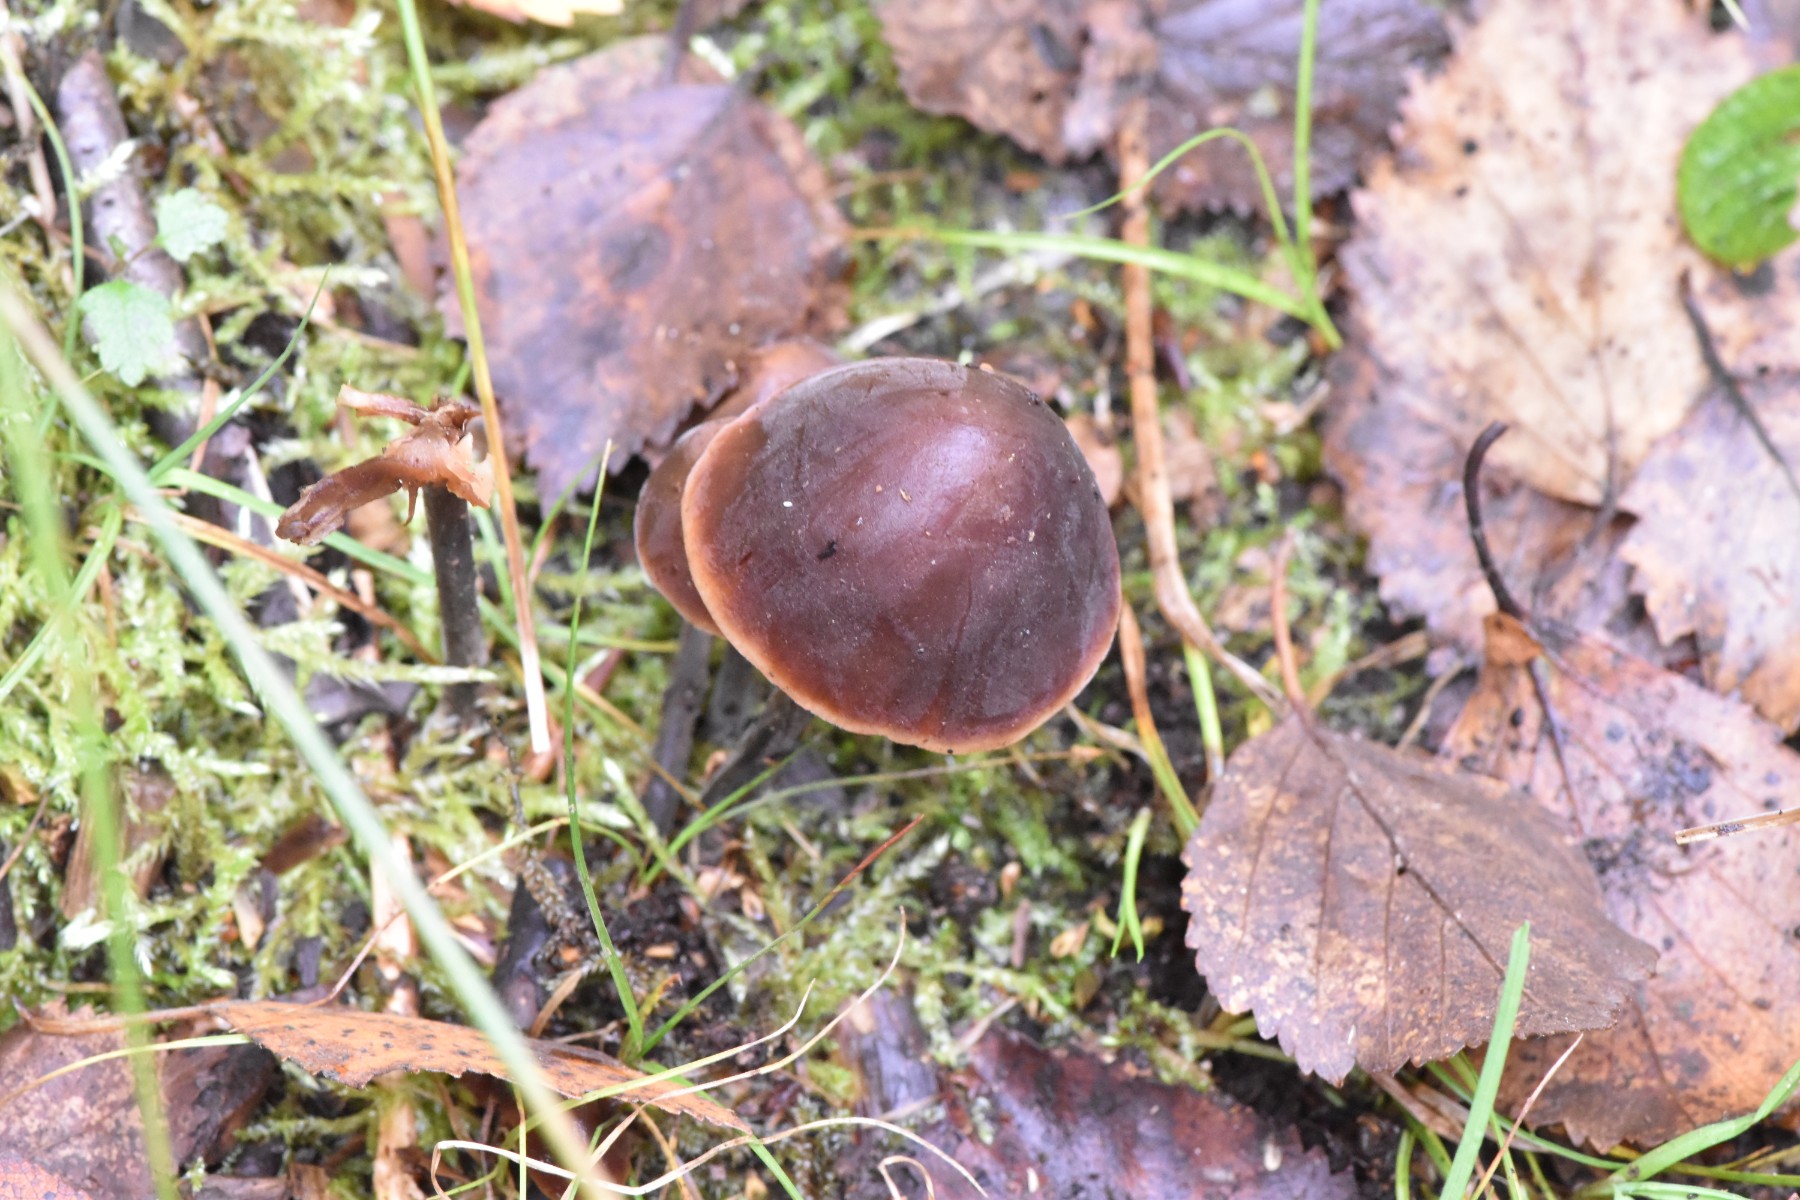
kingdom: Fungi
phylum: Basidiomycota
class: Agaricomycetes
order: Agaricales
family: Macrocystidiaceae
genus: Macrocystidia
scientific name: Macrocystidia cucumis
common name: agurkehat
